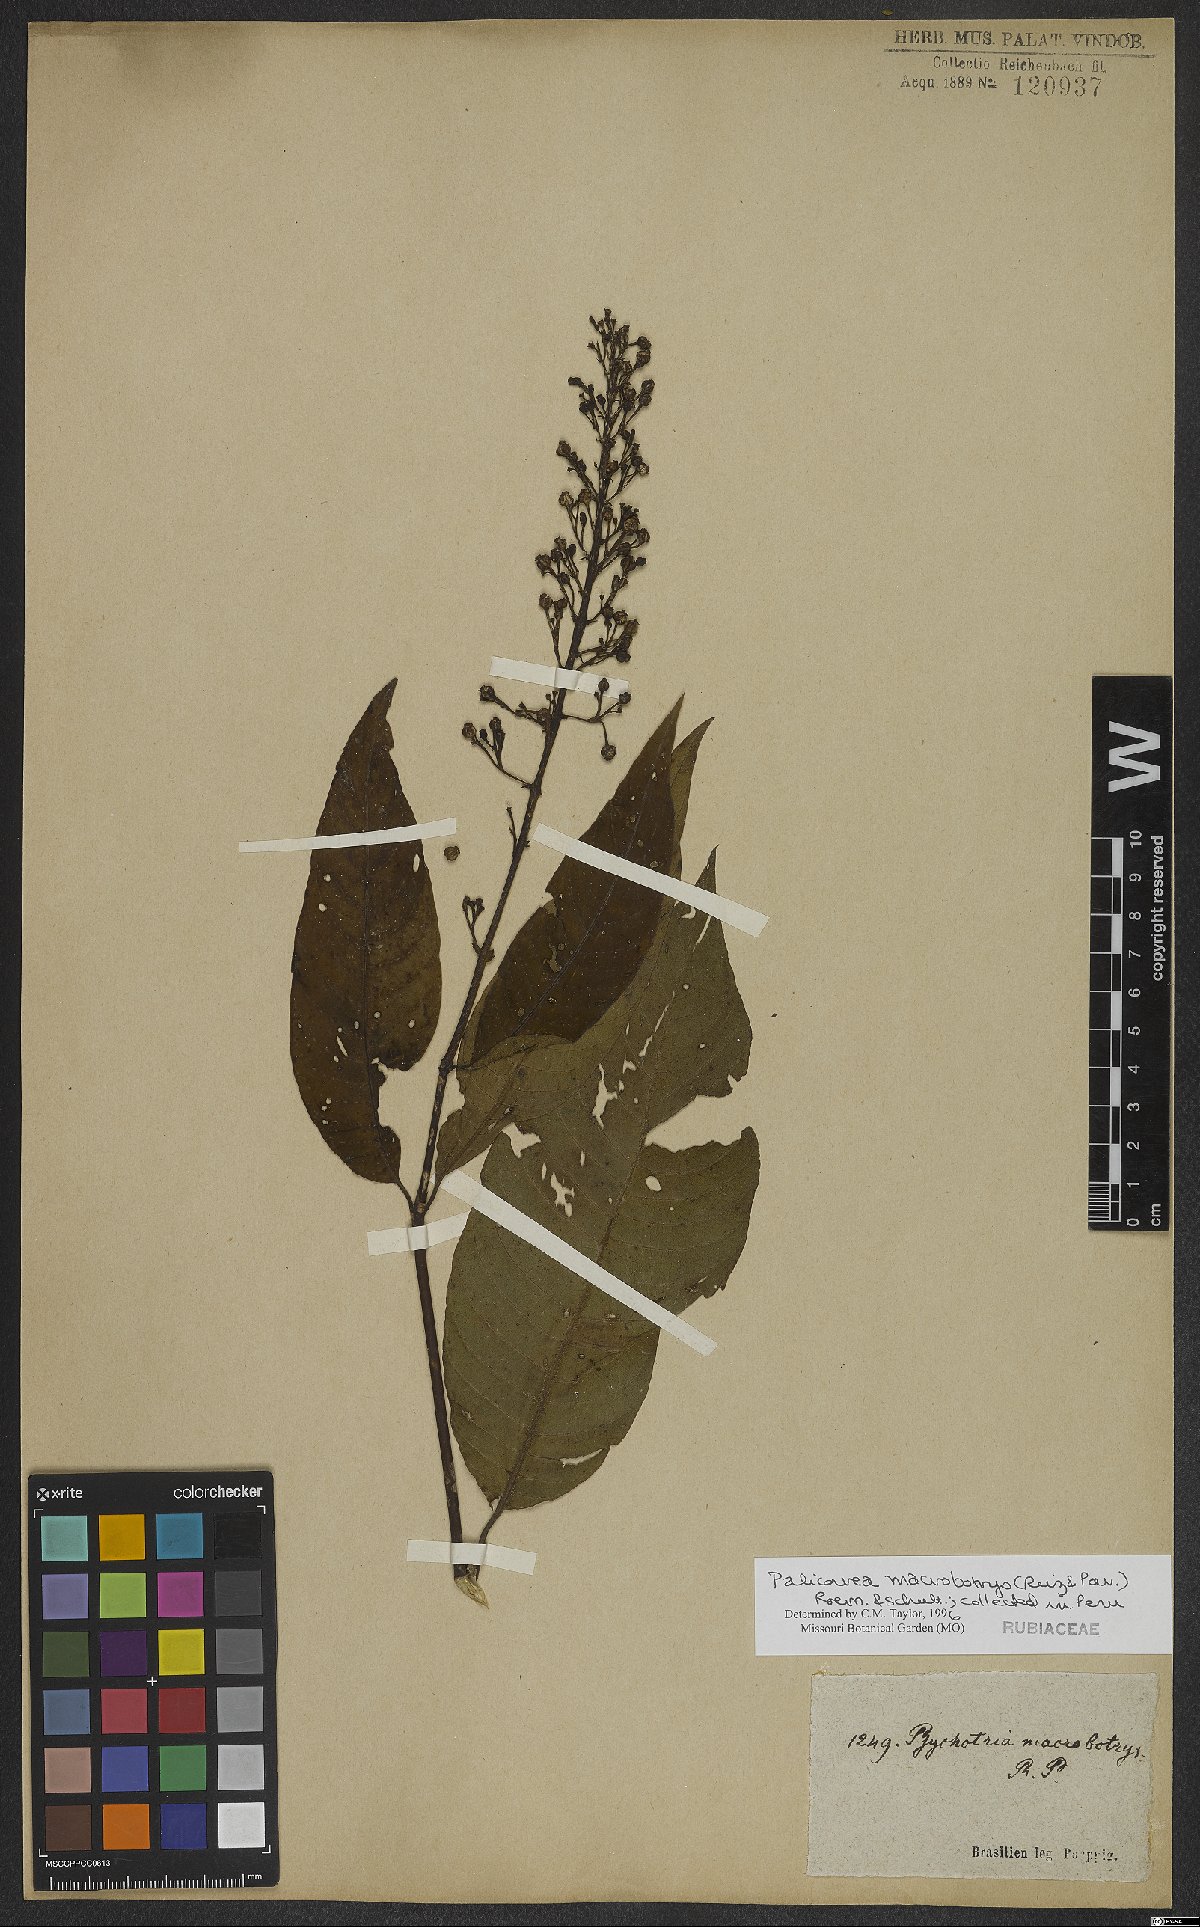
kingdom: Plantae
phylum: Tracheophyta
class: Magnoliopsida
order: Gentianales
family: Rubiaceae
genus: Palicourea
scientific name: Palicourea macrobotrys
